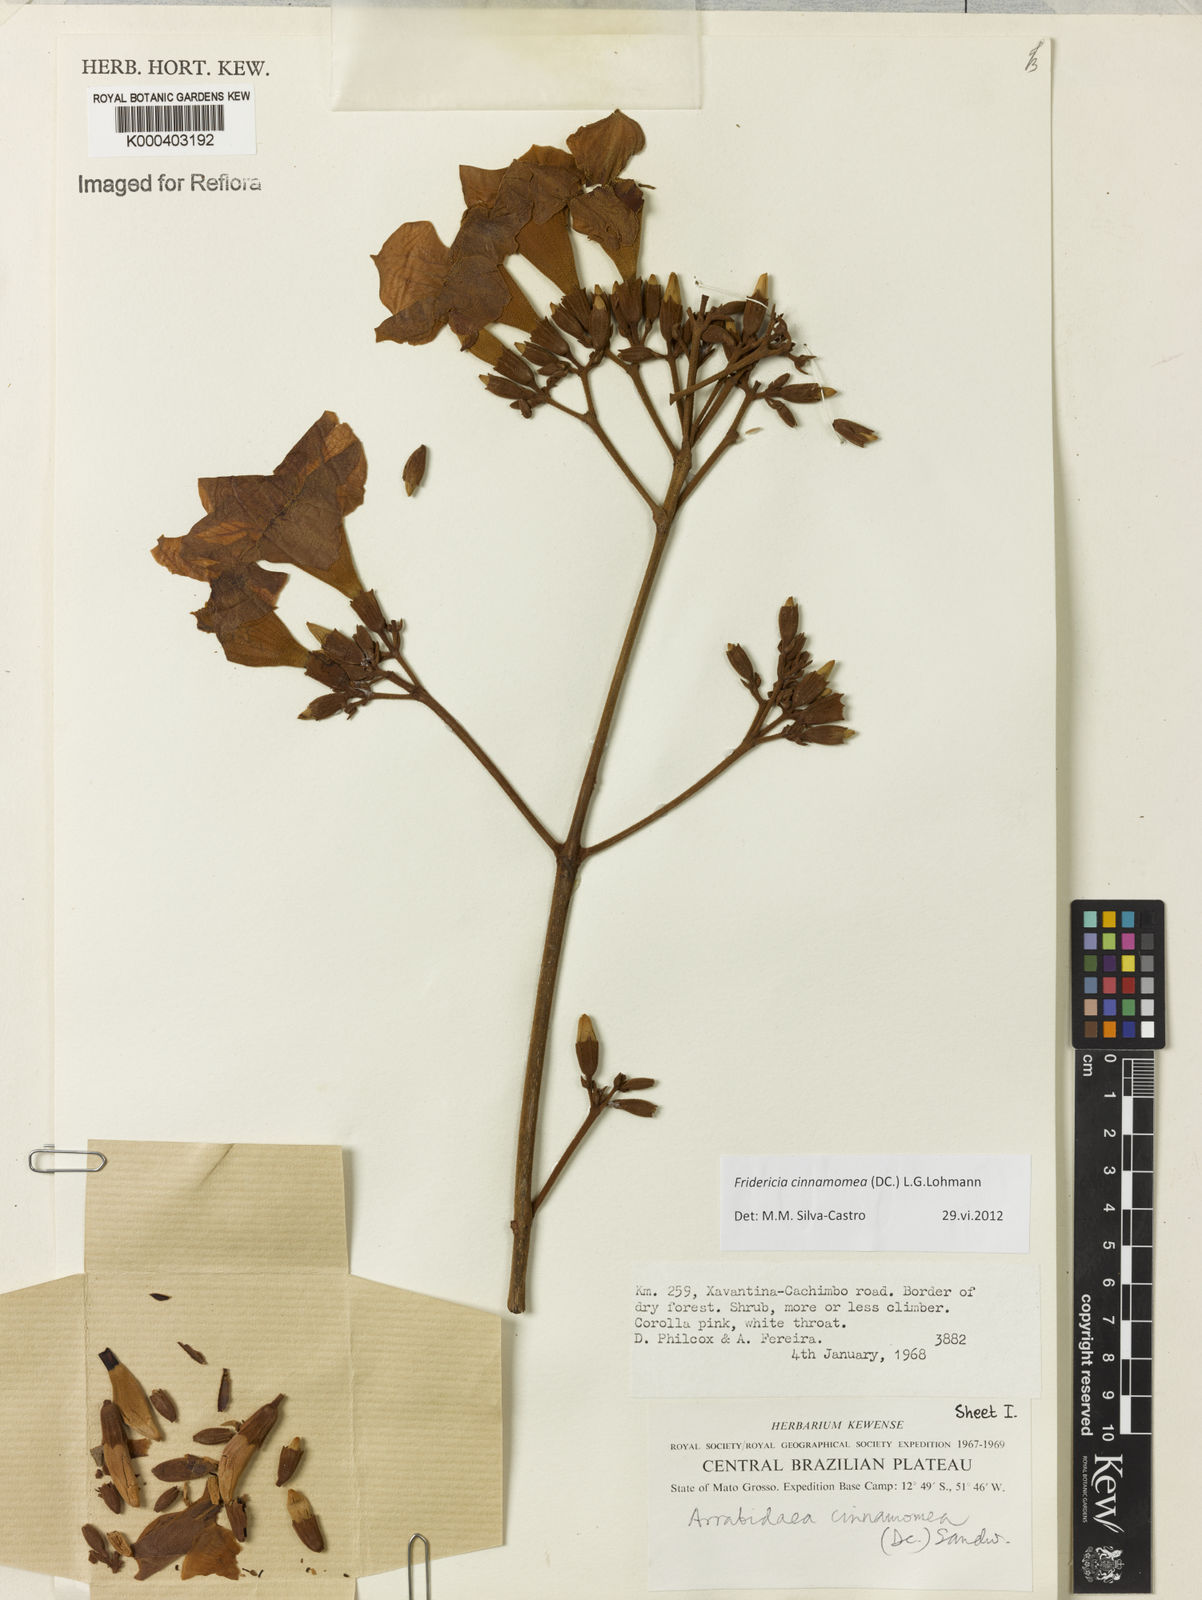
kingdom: Plantae
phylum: Tracheophyta
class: Magnoliopsida
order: Lamiales
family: Bignoniaceae
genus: Fridericia
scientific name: Fridericia cinnamomea
